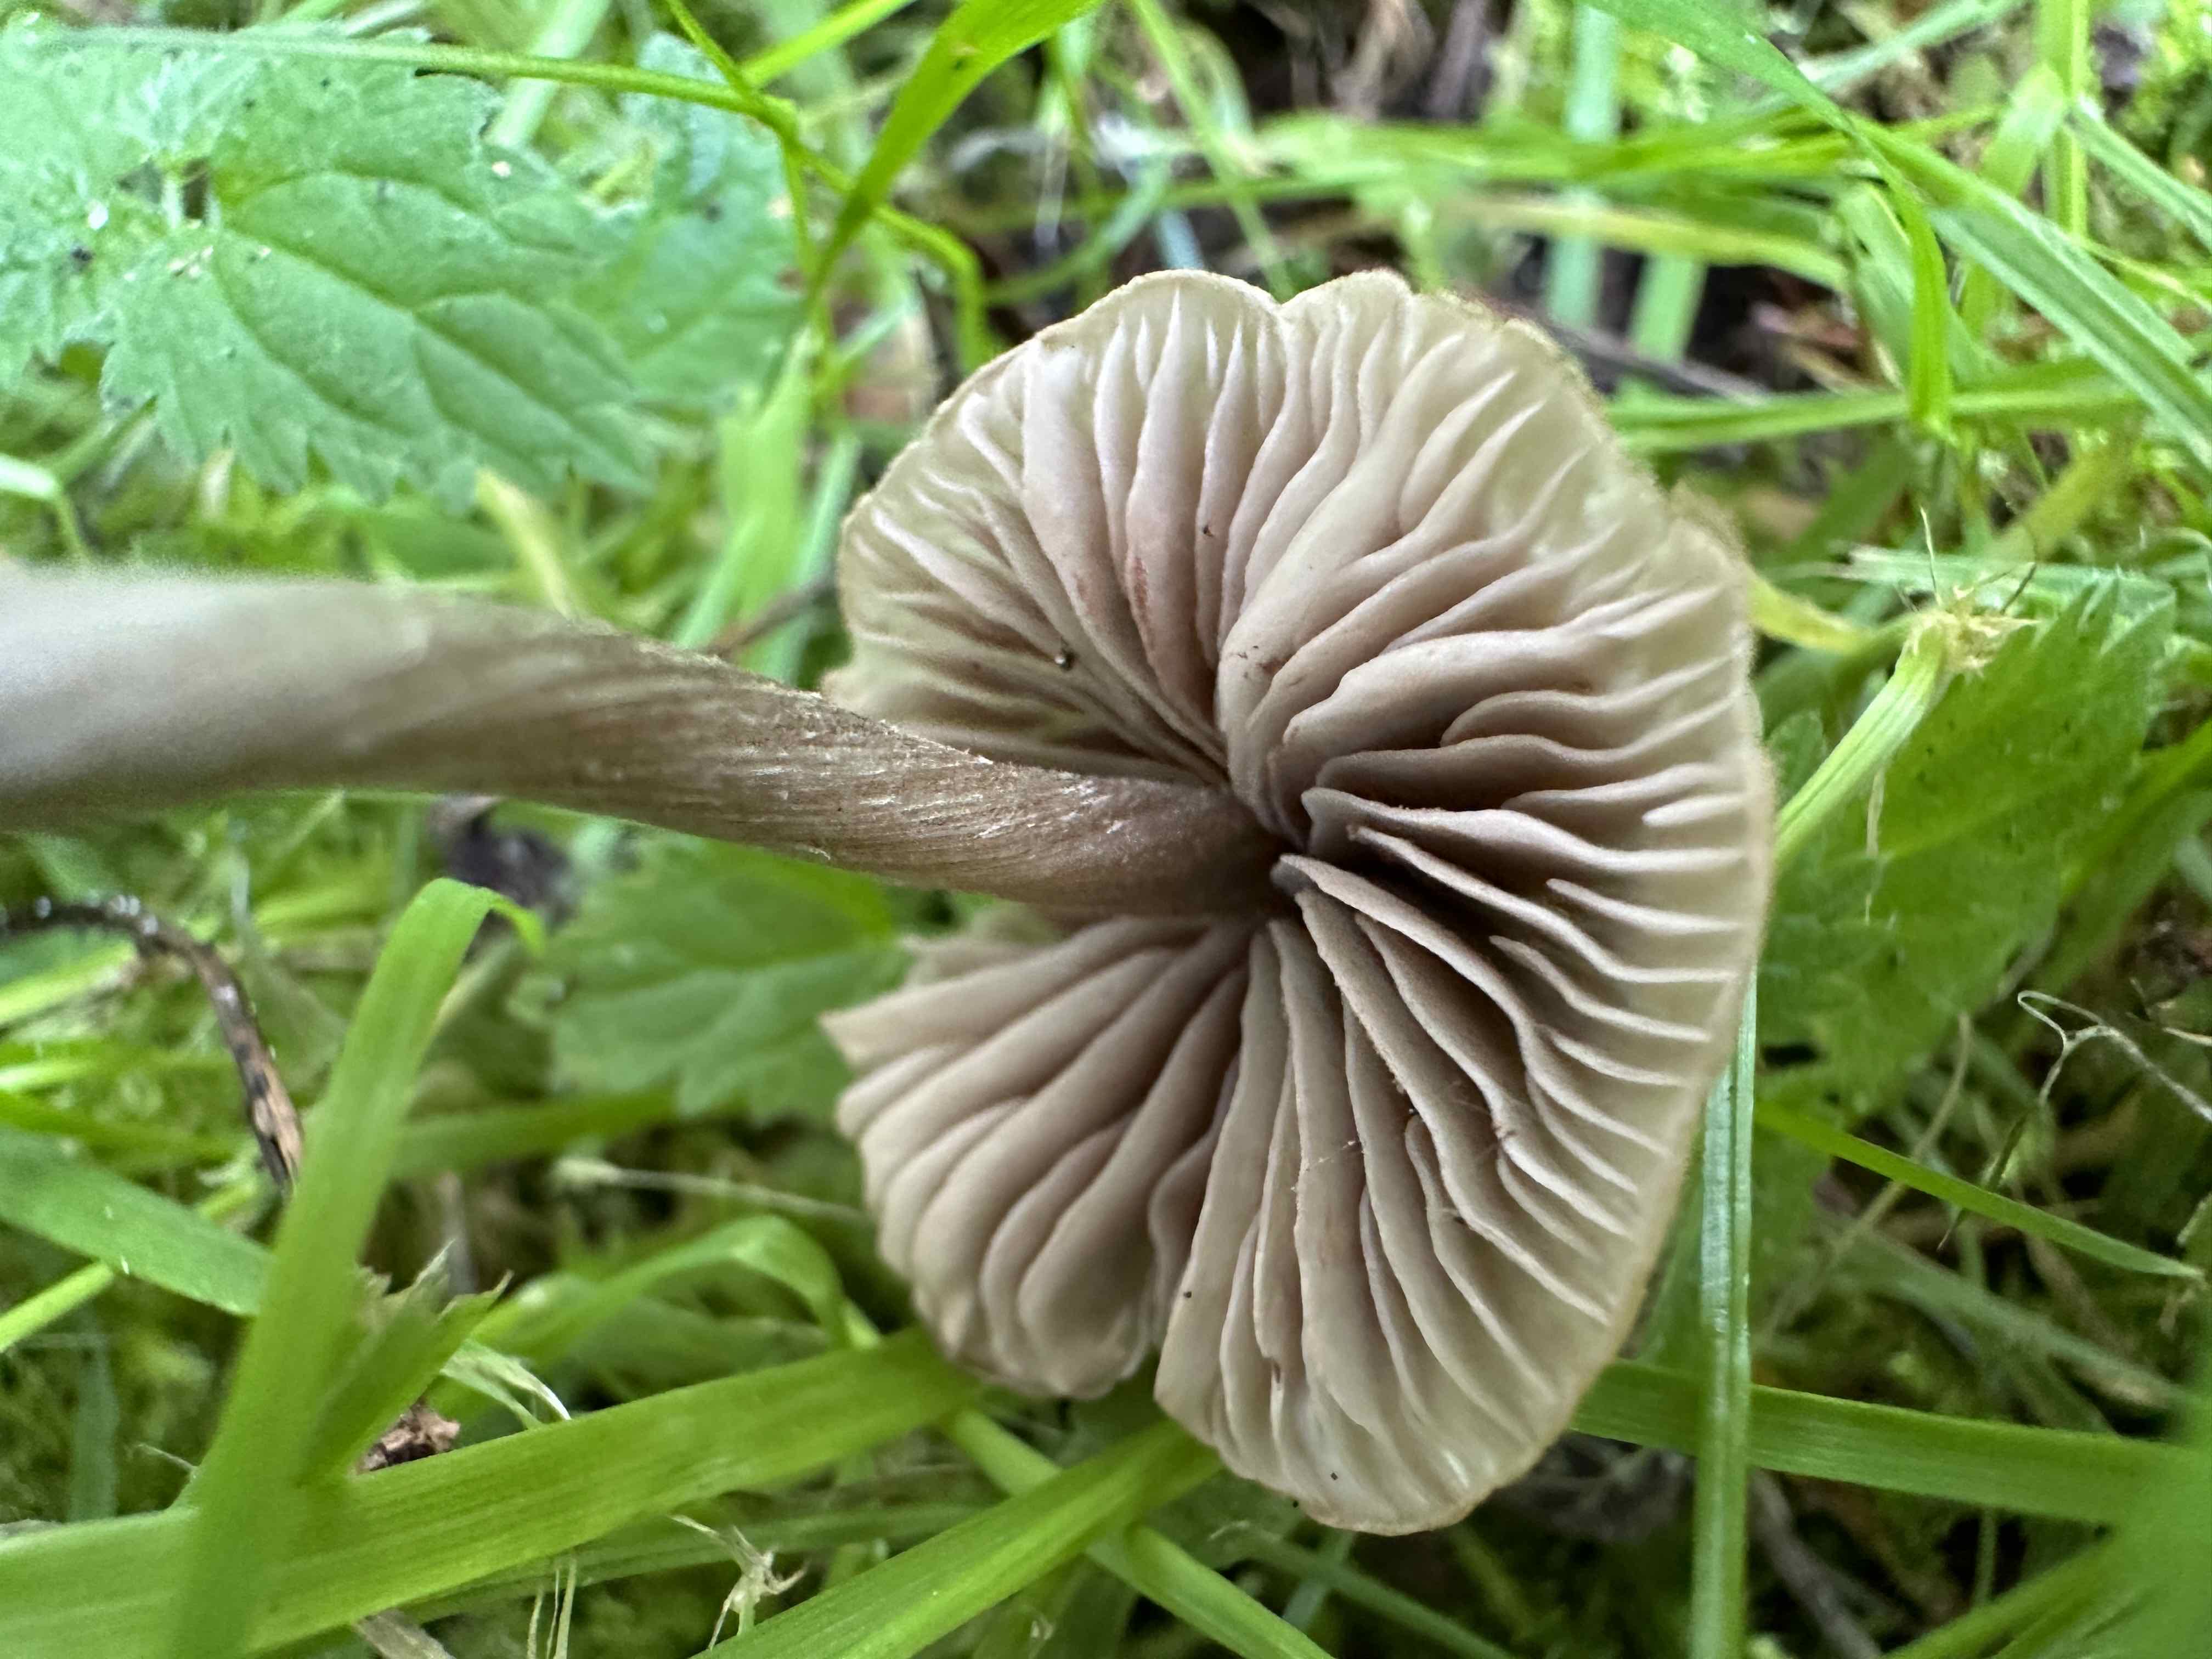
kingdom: Fungi
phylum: Basidiomycota
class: Agaricomycetes
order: Agaricales
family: Entolomataceae
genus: Entoloma
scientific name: Entoloma
